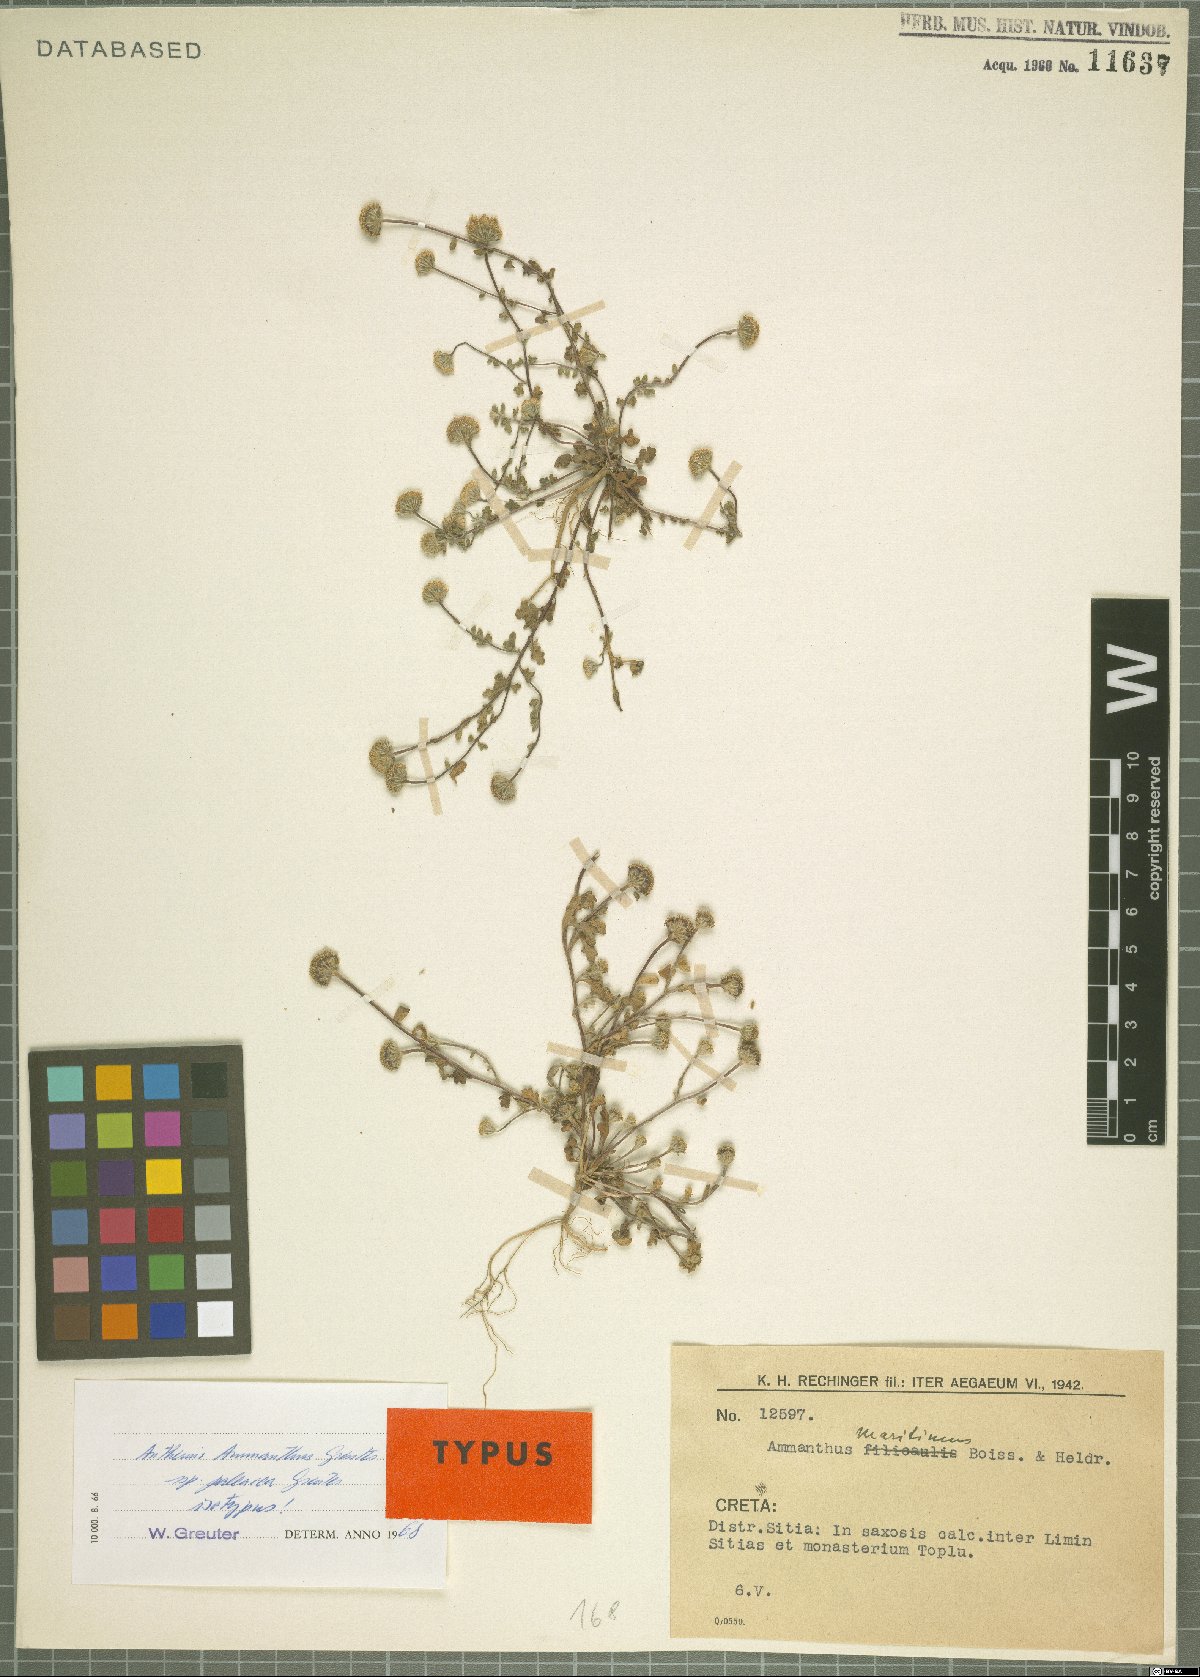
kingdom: Plantae
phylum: Tracheophyta
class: Magnoliopsida
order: Asterales
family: Asteraceae
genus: Anthemis
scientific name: Anthemis ammanthus
